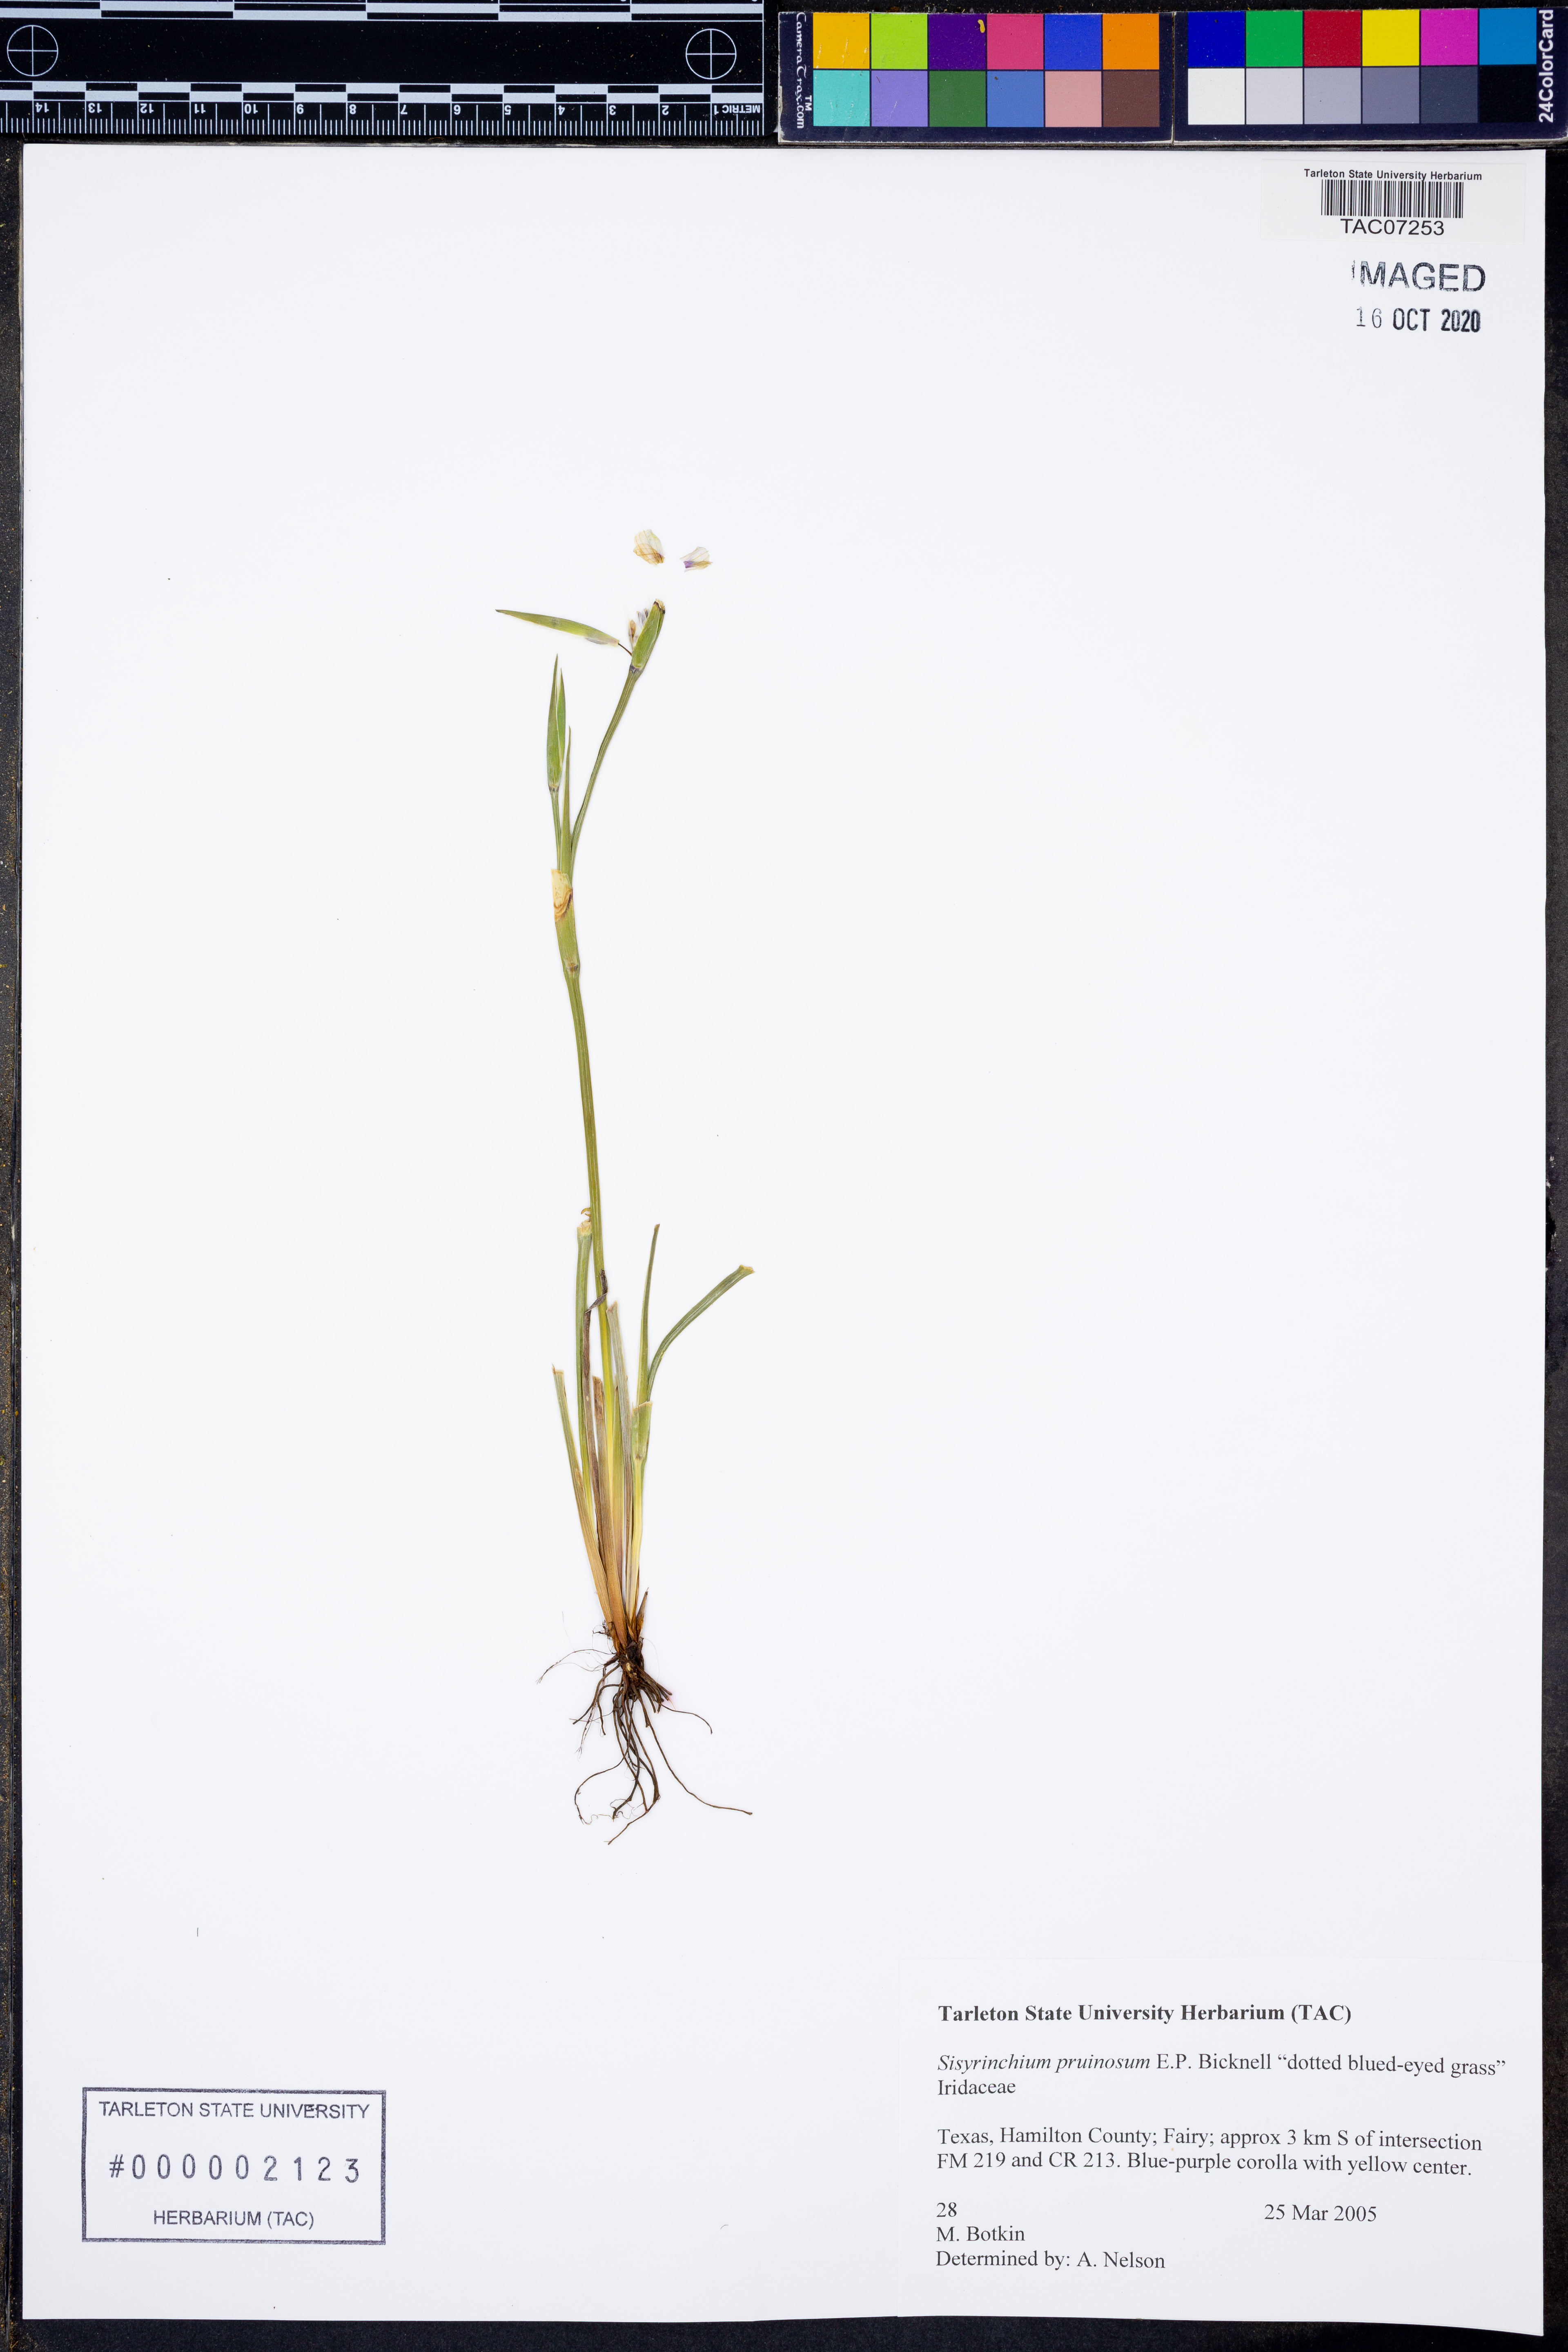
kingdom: Plantae
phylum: Tracheophyta
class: Liliopsida
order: Asparagales
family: Iridaceae
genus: Sisyrinchium
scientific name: Sisyrinchium pruinosum
